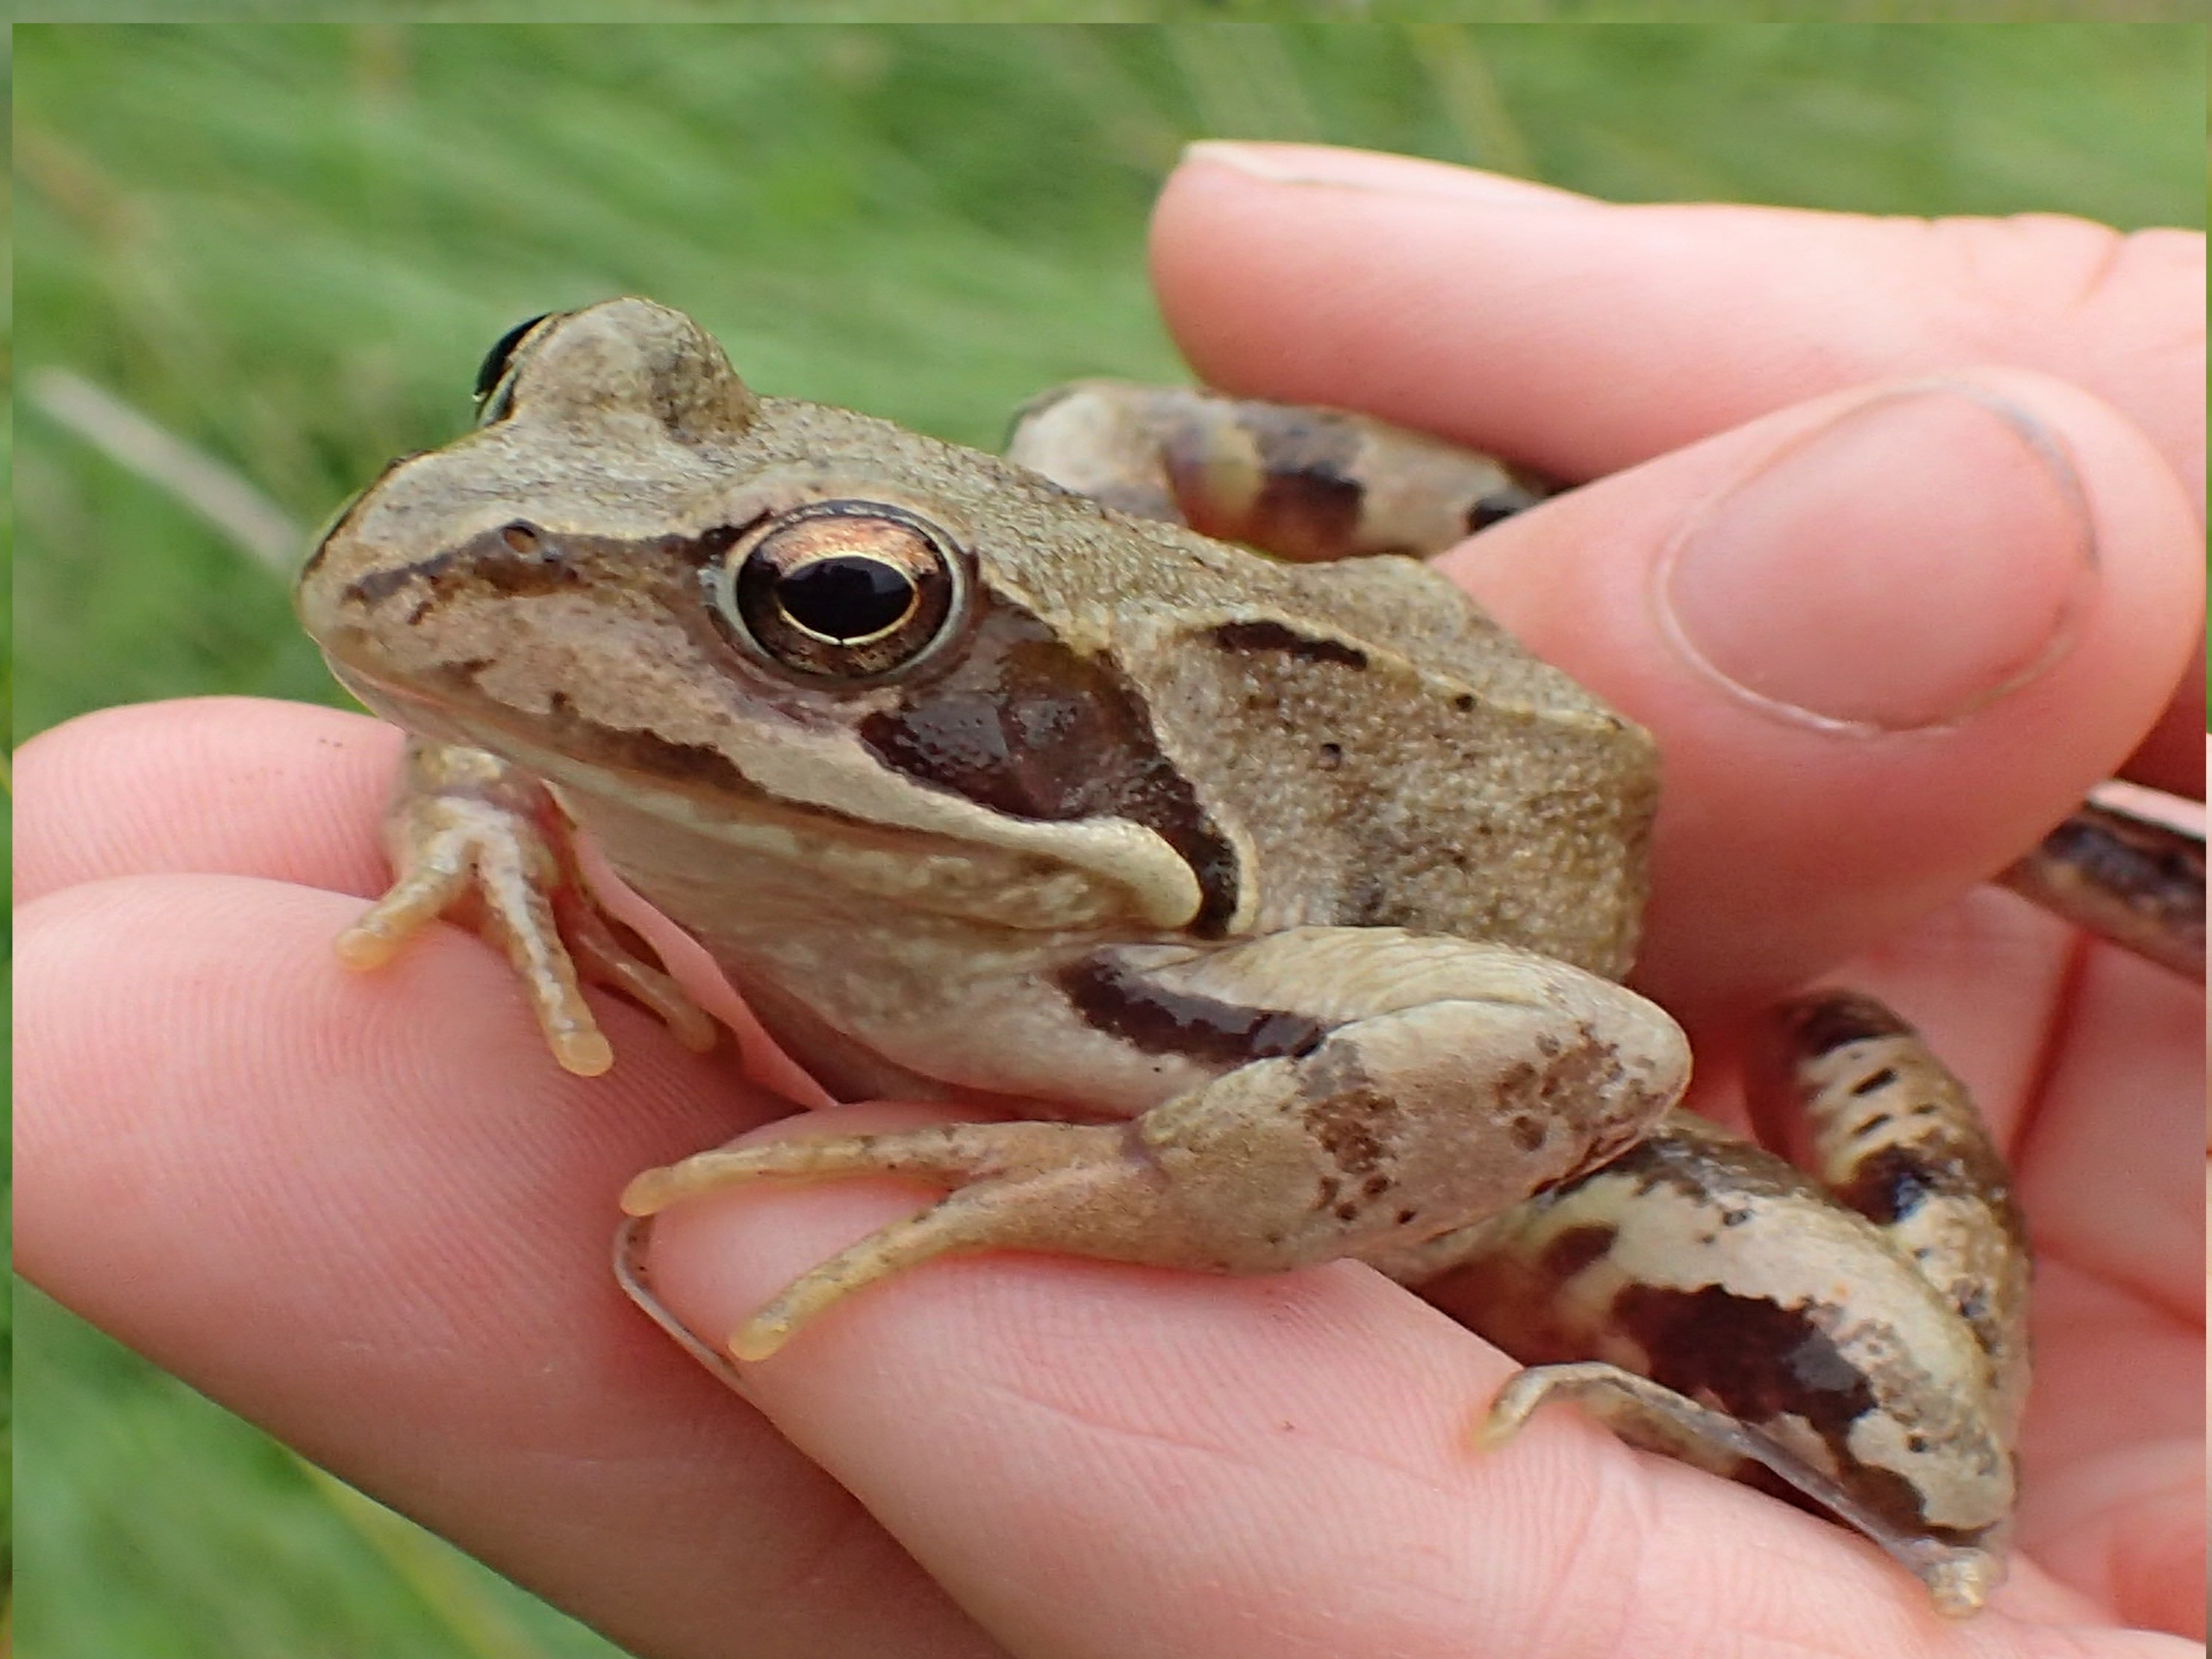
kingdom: Animalia
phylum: Chordata
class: Amphibia
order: Anura
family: Ranidae
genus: Rana
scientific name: Rana temporaria
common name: Butsnudet frø
